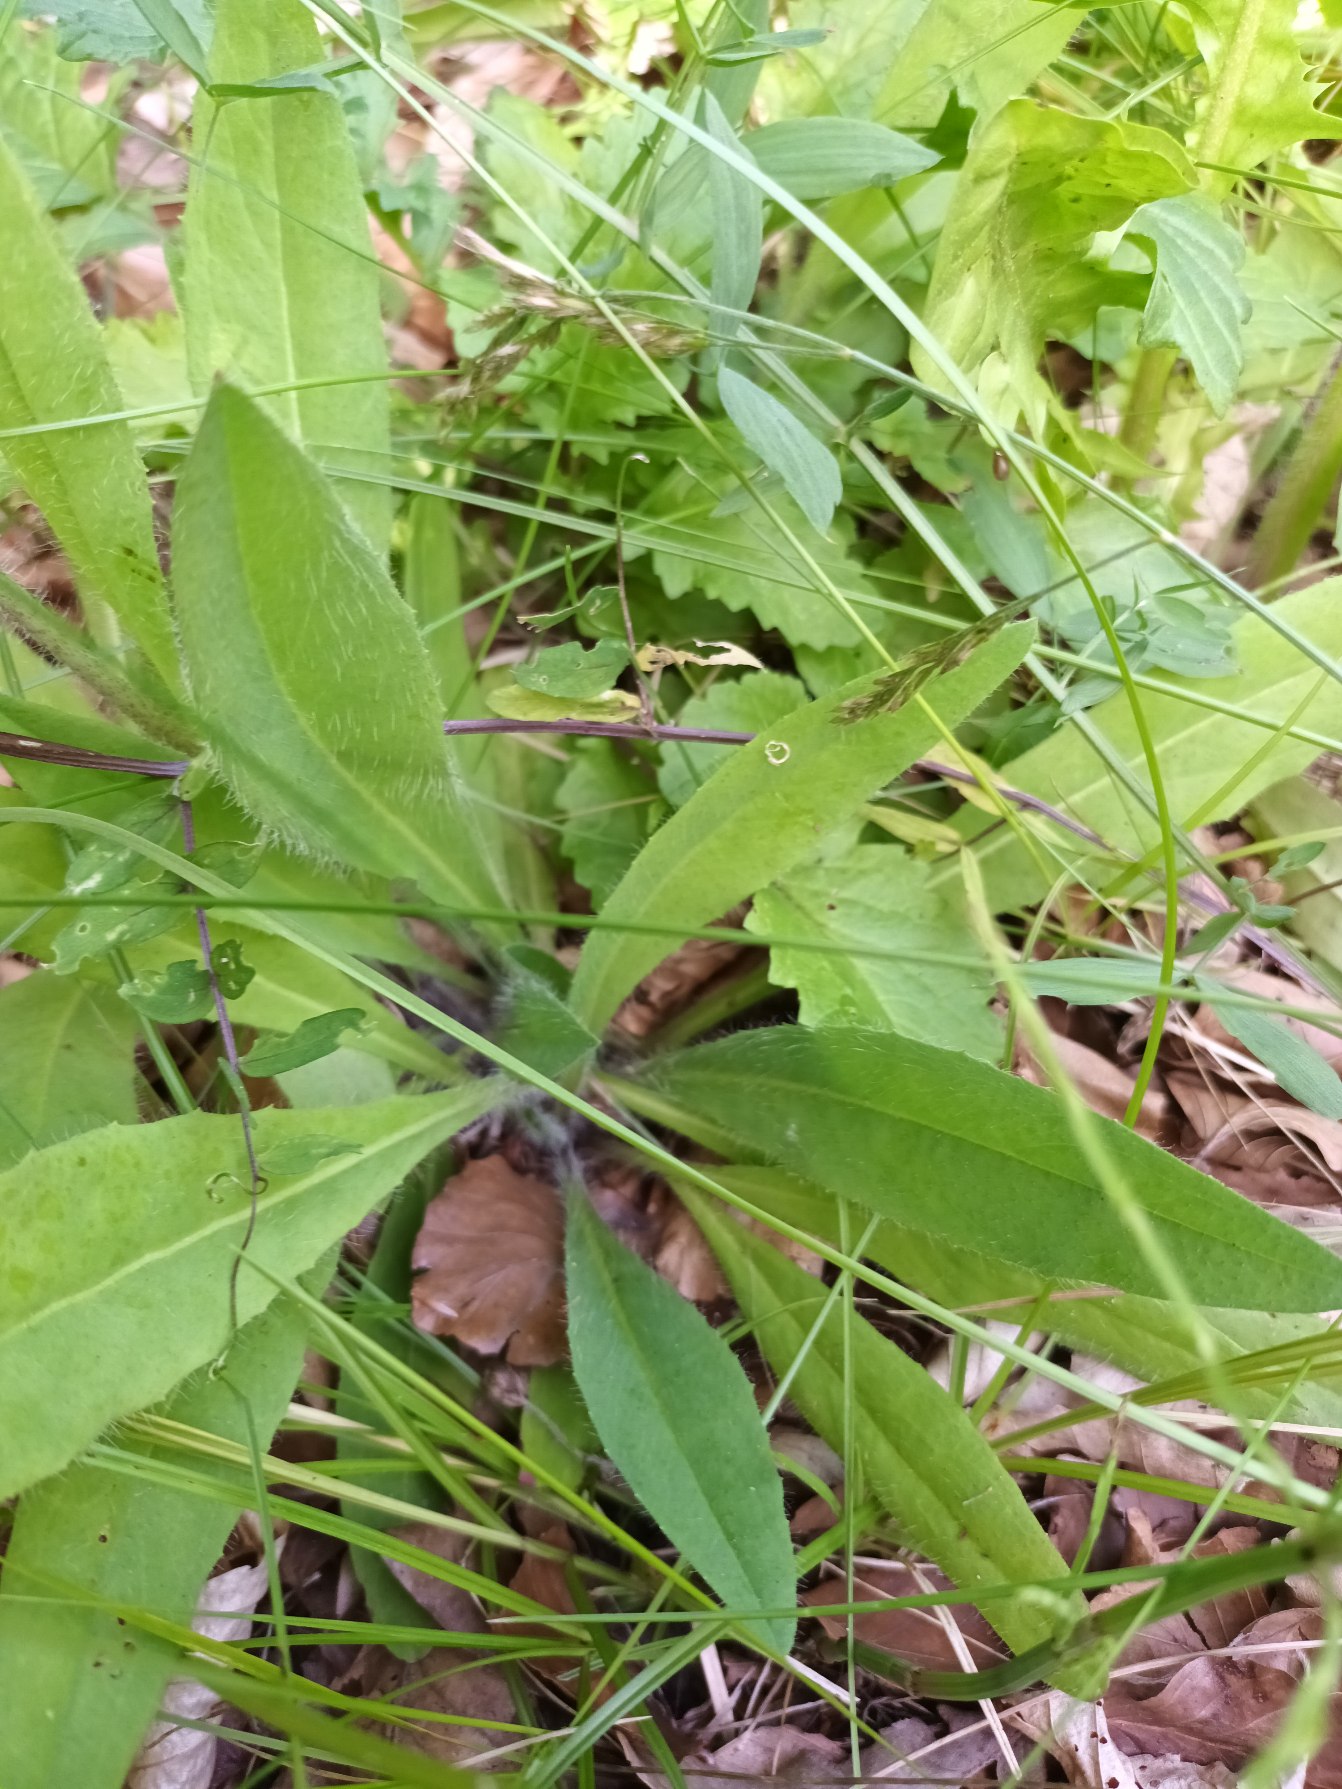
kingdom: Plantae
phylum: Tracheophyta
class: Magnoliopsida
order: Asterales
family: Asteraceae
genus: Pilosella
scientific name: Pilosella caespitosa
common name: Eng-høgeurt
